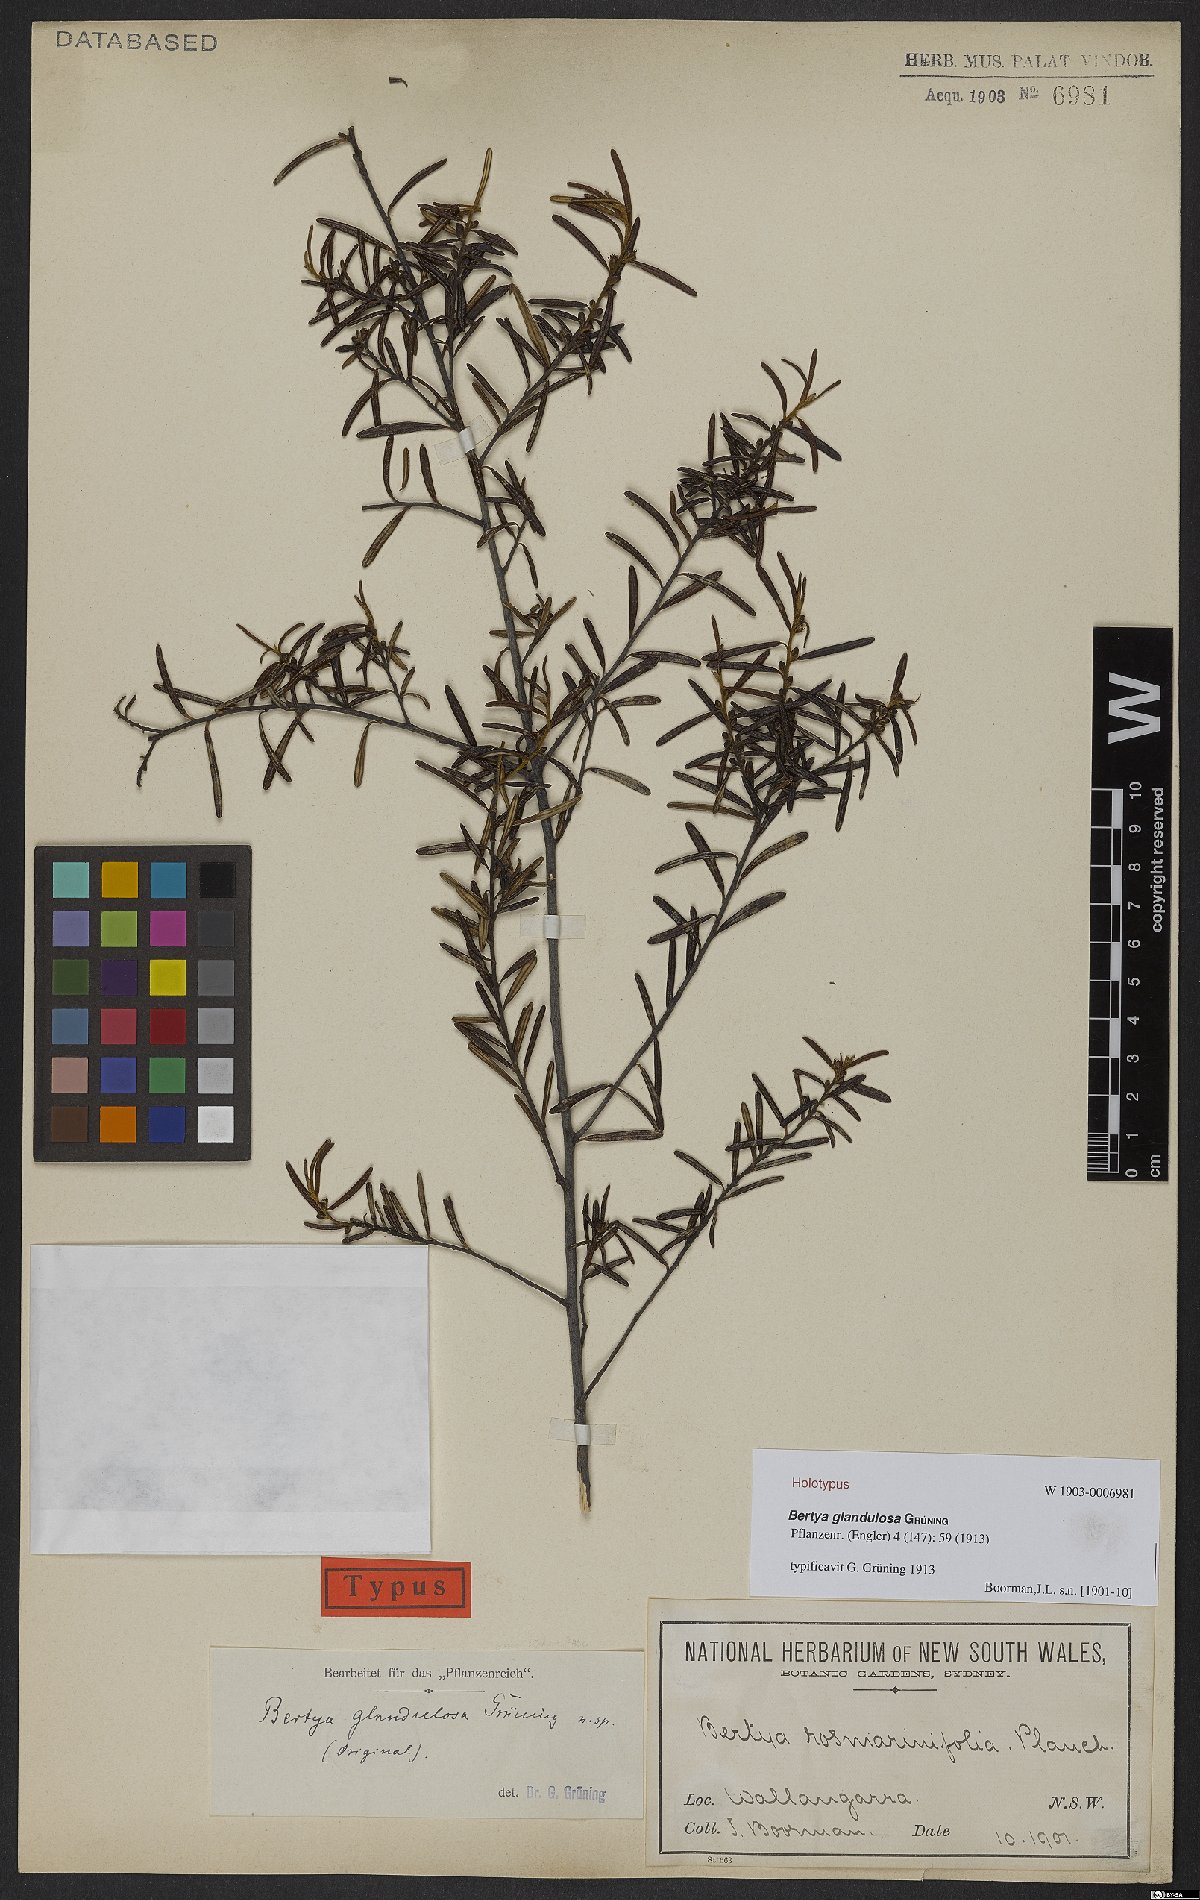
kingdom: Plantae
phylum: Tracheophyta
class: Magnoliopsida
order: Malpighiales
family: Euphorbiaceae
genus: Bertya
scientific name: Bertya glandulosa
